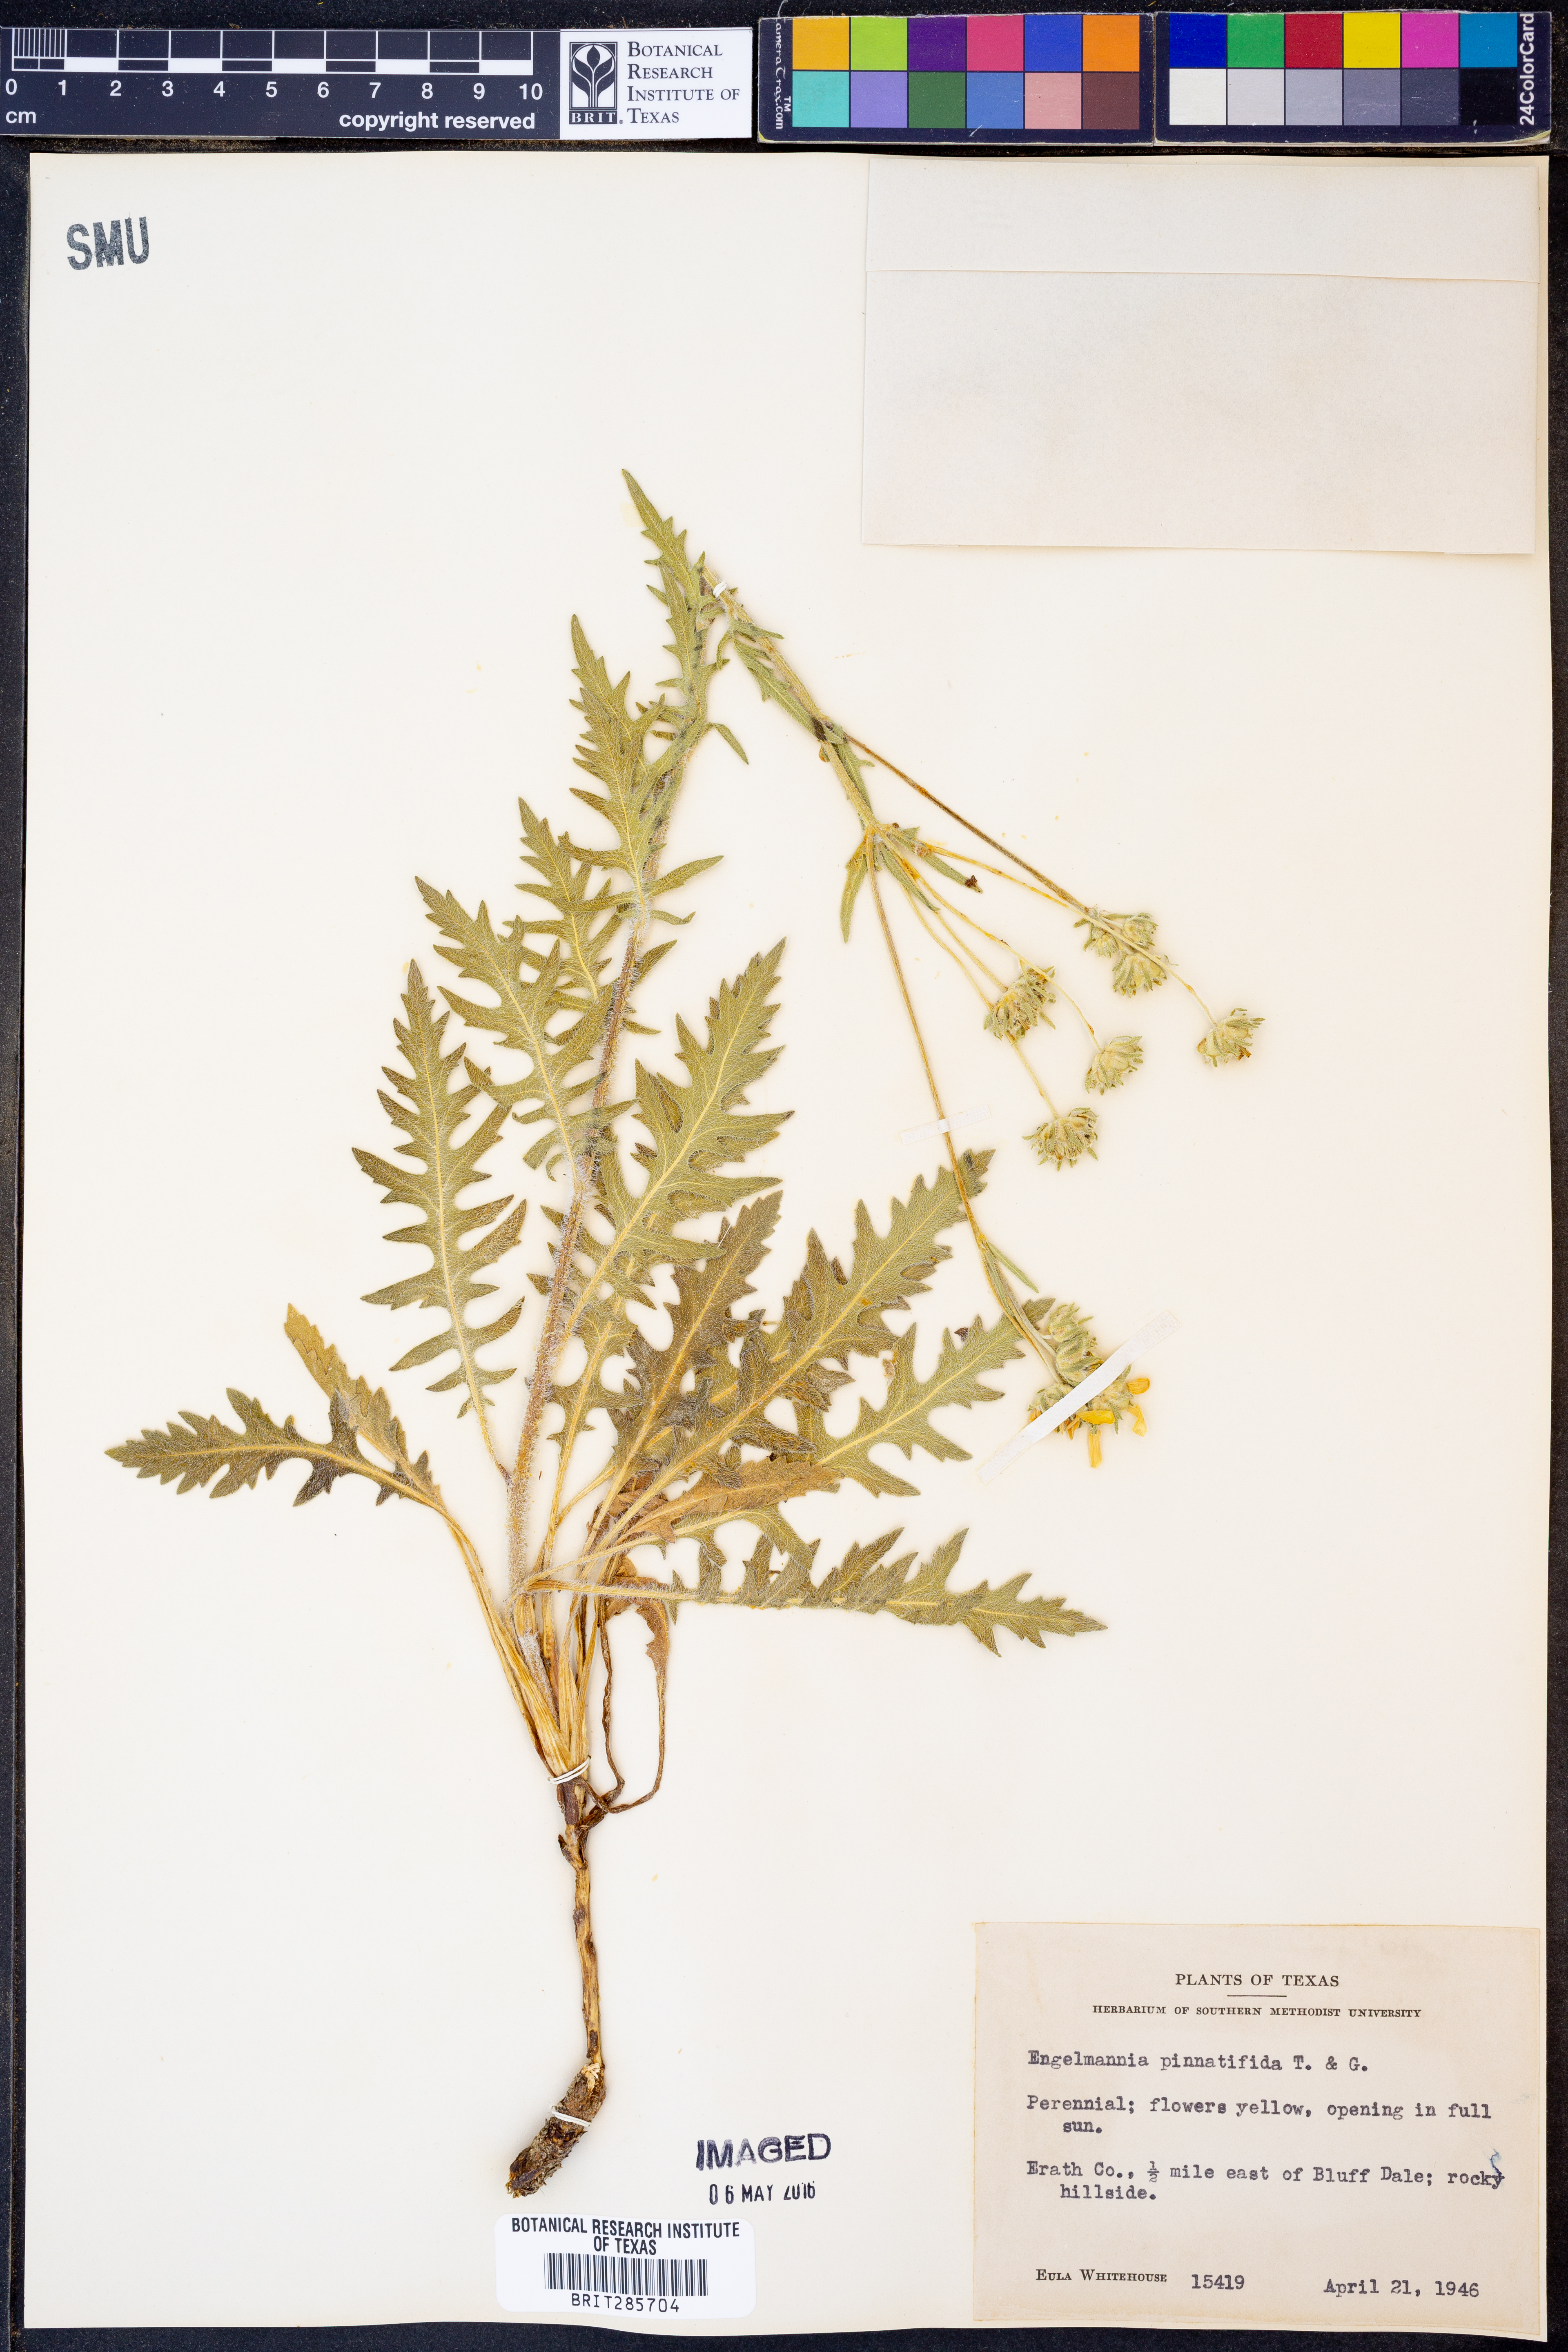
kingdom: Plantae
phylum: Tracheophyta
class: Magnoliopsida
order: Asterales
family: Asteraceae
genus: Engelmannia
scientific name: Engelmannia peristenia
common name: Engelmann's daisy
